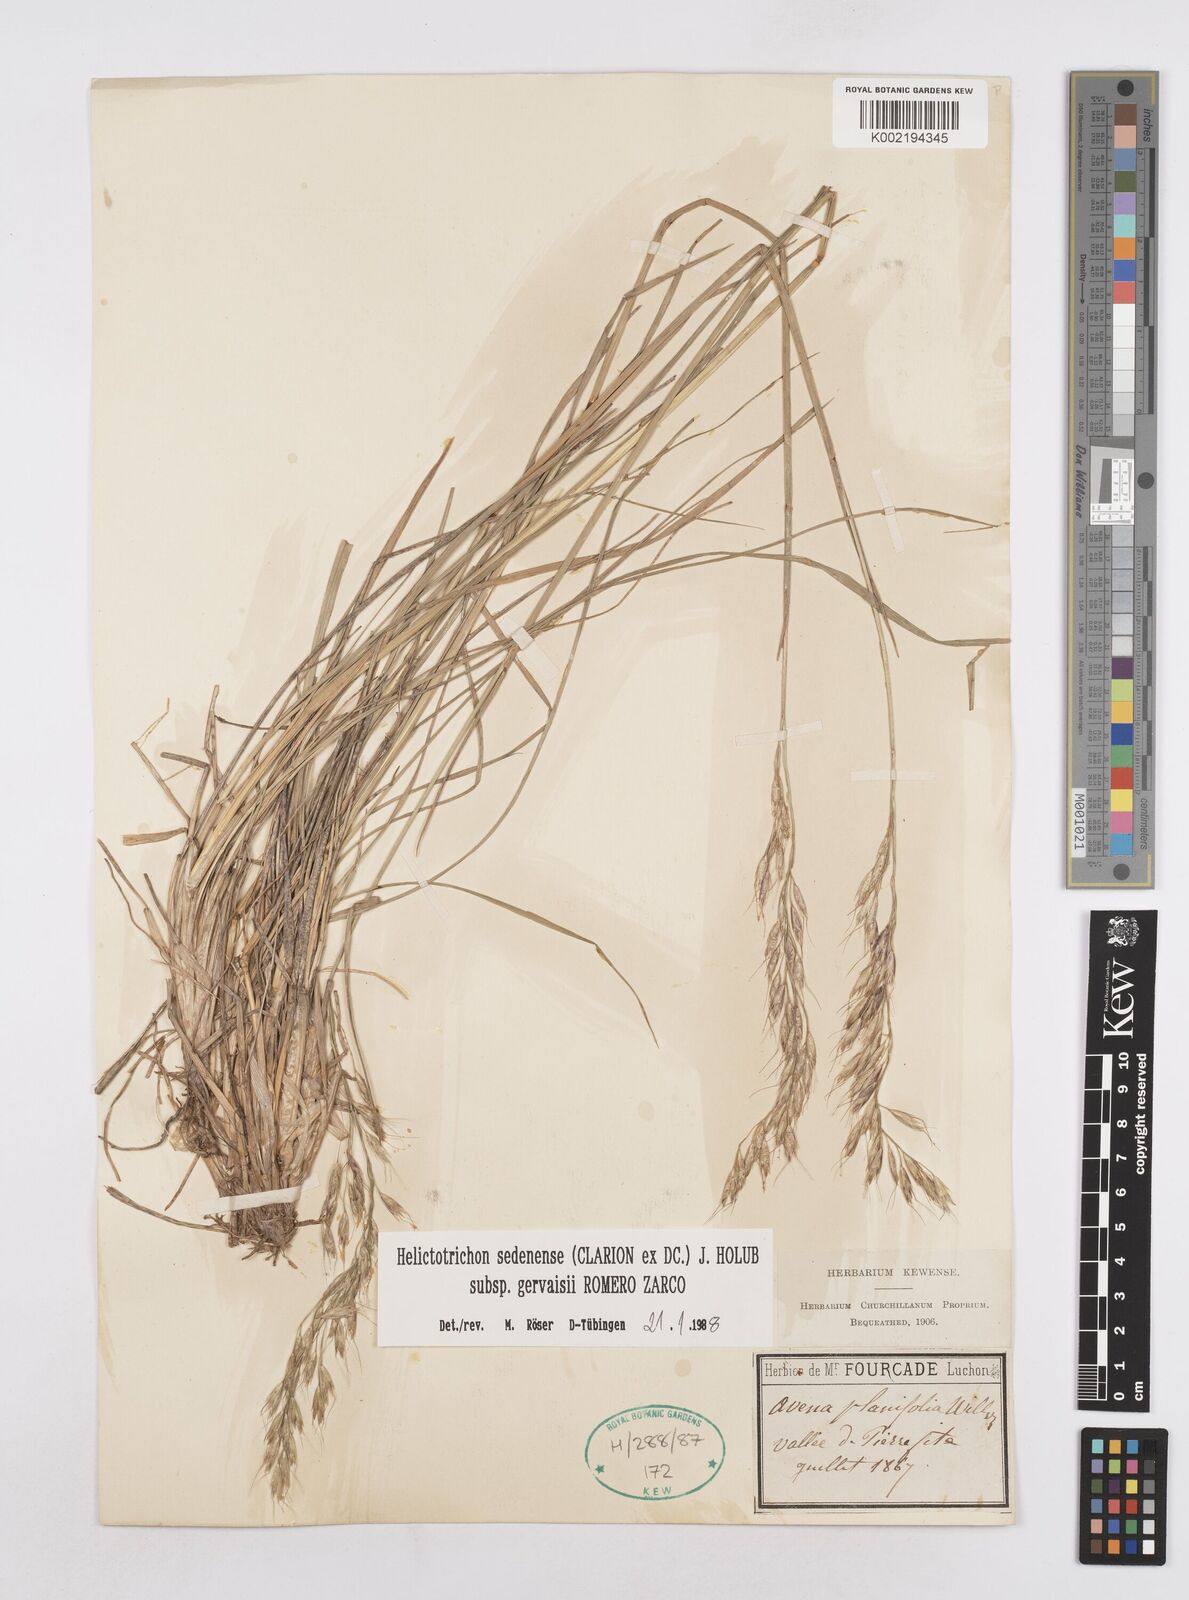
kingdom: Plantae
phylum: Tracheophyta
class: Liliopsida
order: Poales
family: Poaceae
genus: Helictotrichon
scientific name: Helictotrichon sedenense
